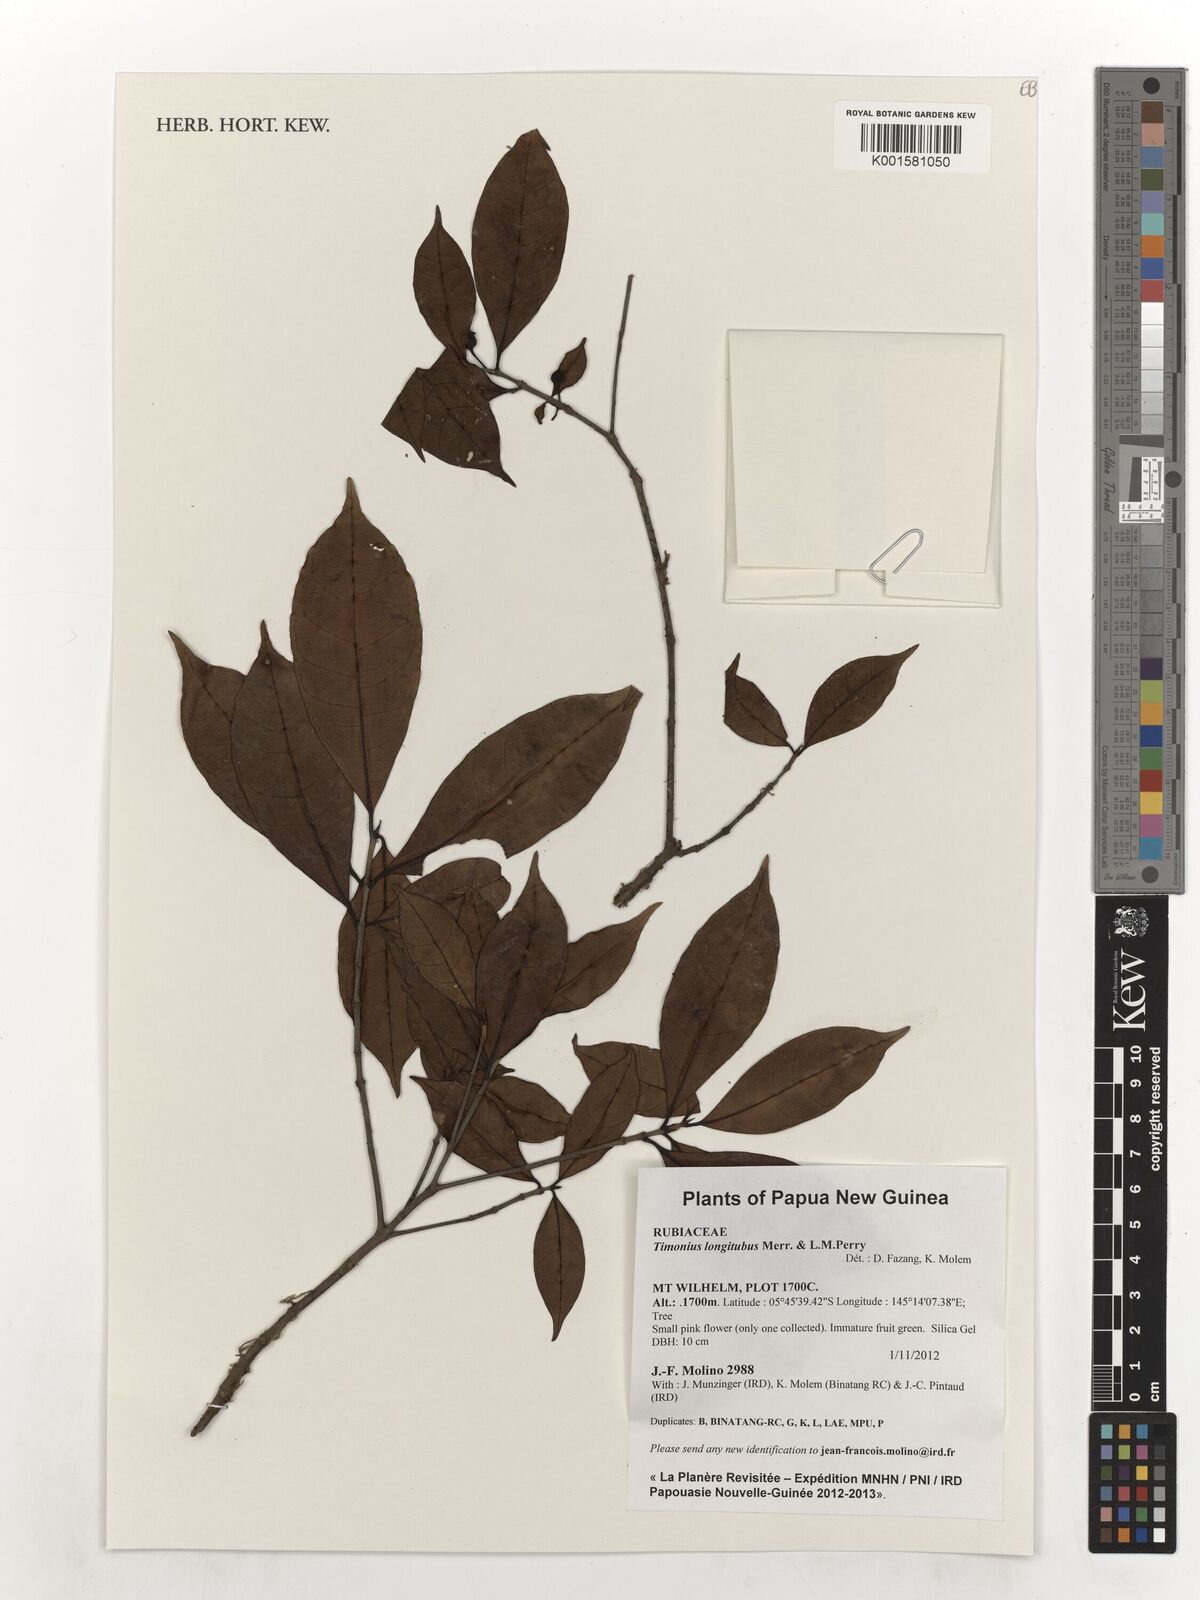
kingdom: Plantae
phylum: Tracheophyta
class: Magnoliopsida
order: Gentianales
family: Rubiaceae
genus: Timonius
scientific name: Timonius longitubus
